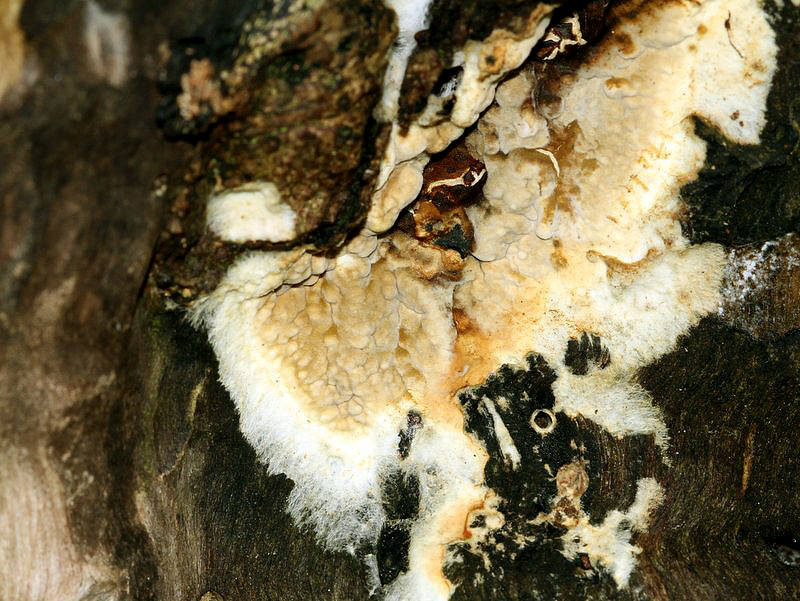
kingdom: Fungi
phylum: Basidiomycota
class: Agaricomycetes
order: Boletales
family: Coniophoraceae
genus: Coniophora
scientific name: Coniophora puteana
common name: gul tømmersvamp
